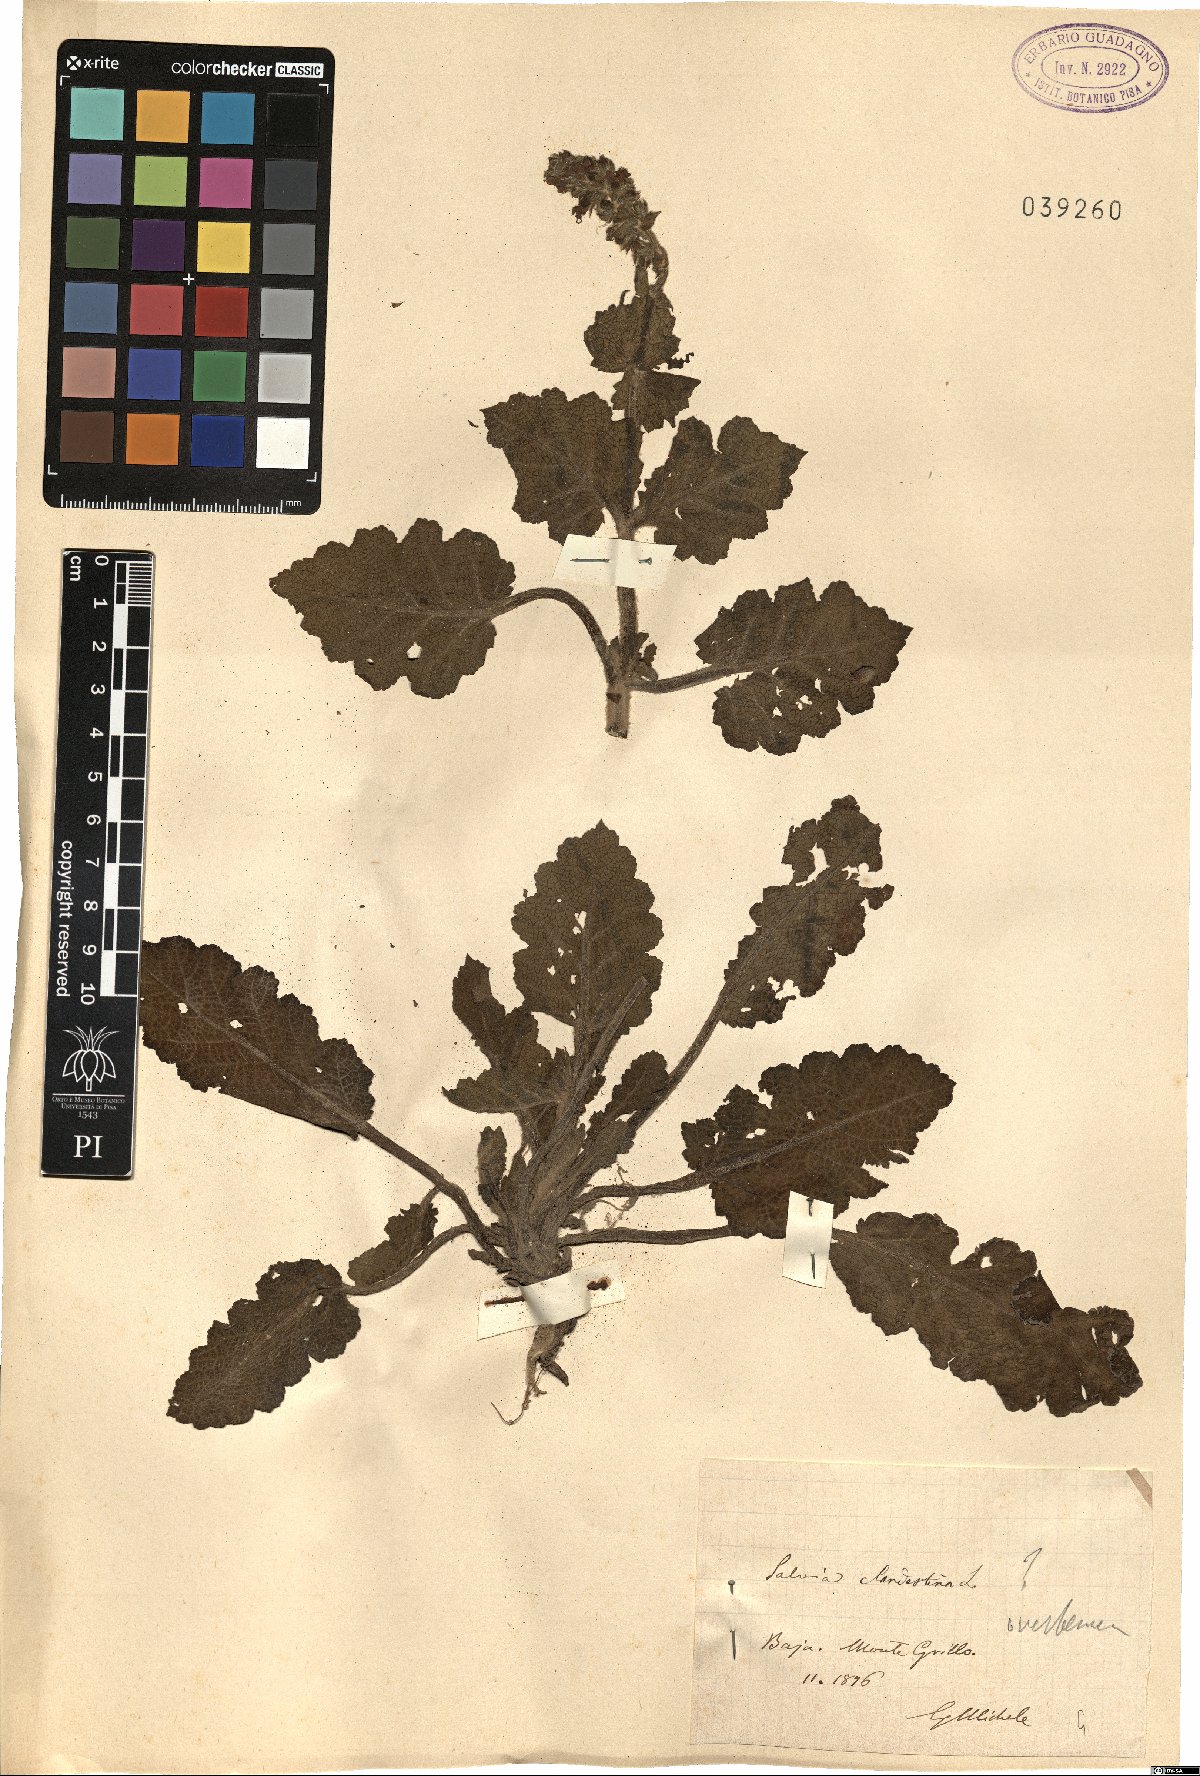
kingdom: Plantae
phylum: Tracheophyta
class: Magnoliopsida
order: Lamiales
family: Lamiaceae
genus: Salvia
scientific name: Salvia verbenaca
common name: Wild clary
